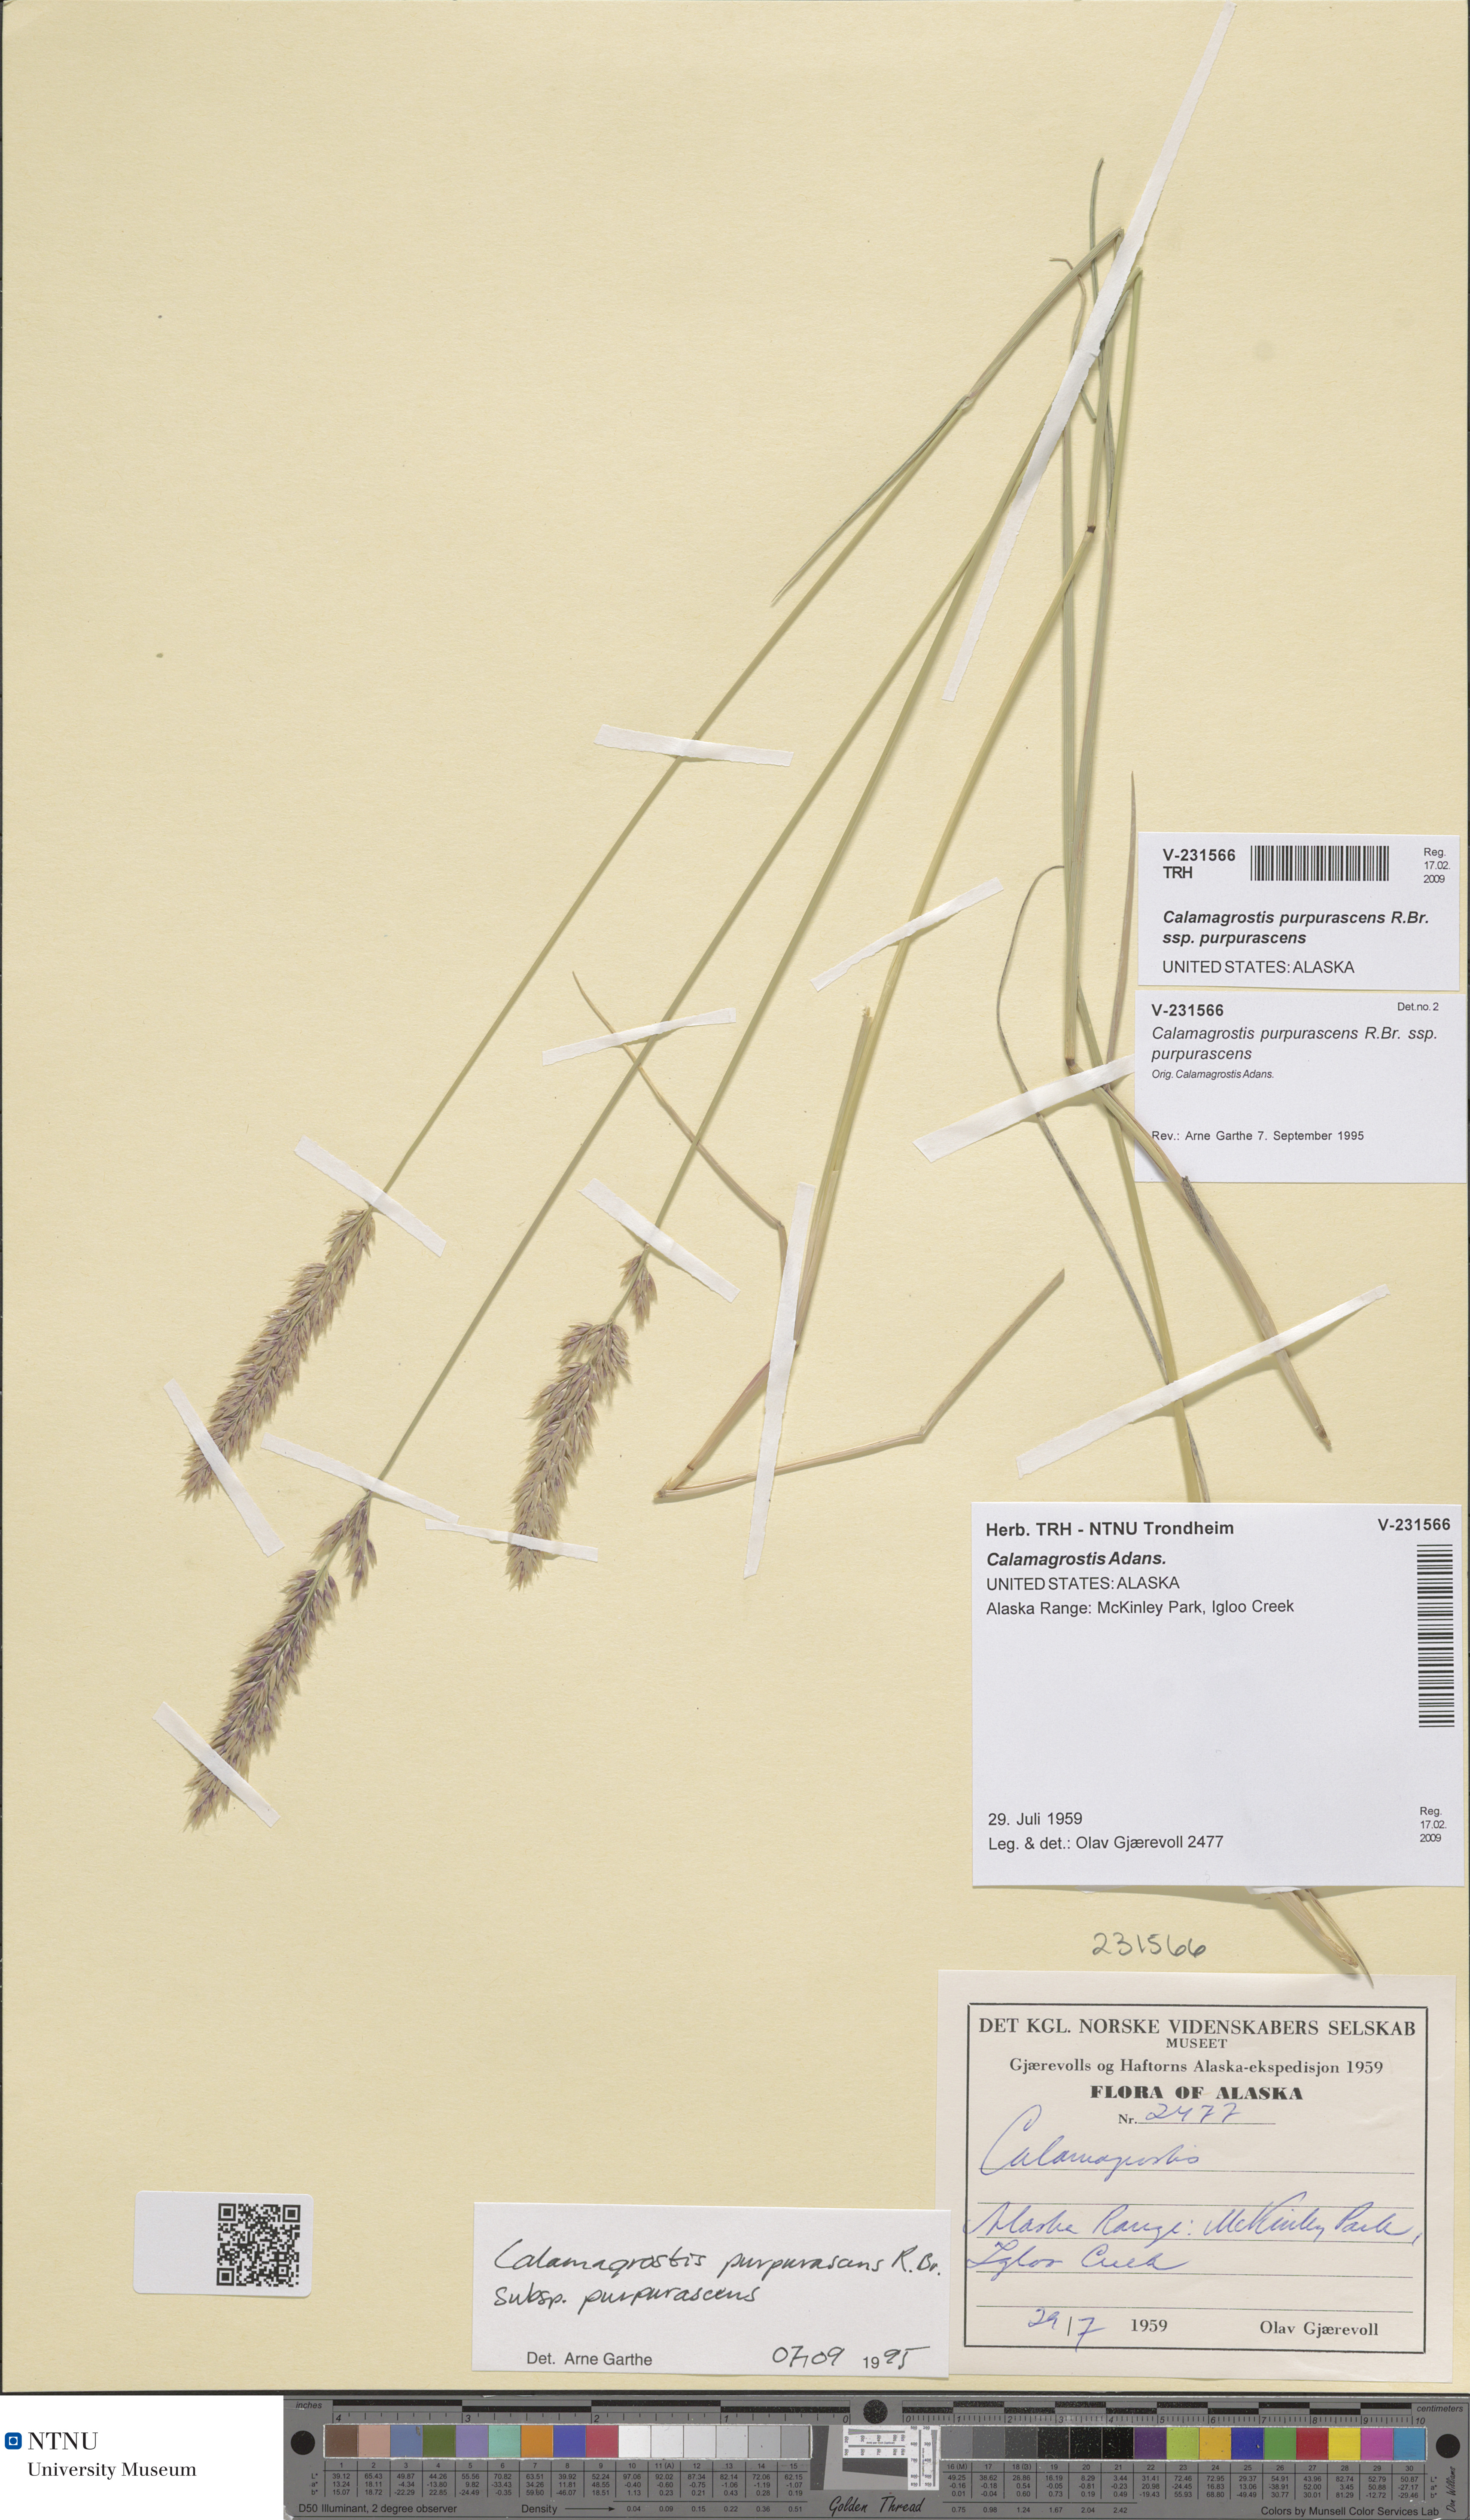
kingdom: Plantae
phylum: Tracheophyta
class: Liliopsida
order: Poales
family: Poaceae
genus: Calamagrostis
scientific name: Calamagrostis purpurascens
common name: Purple reedgrass
